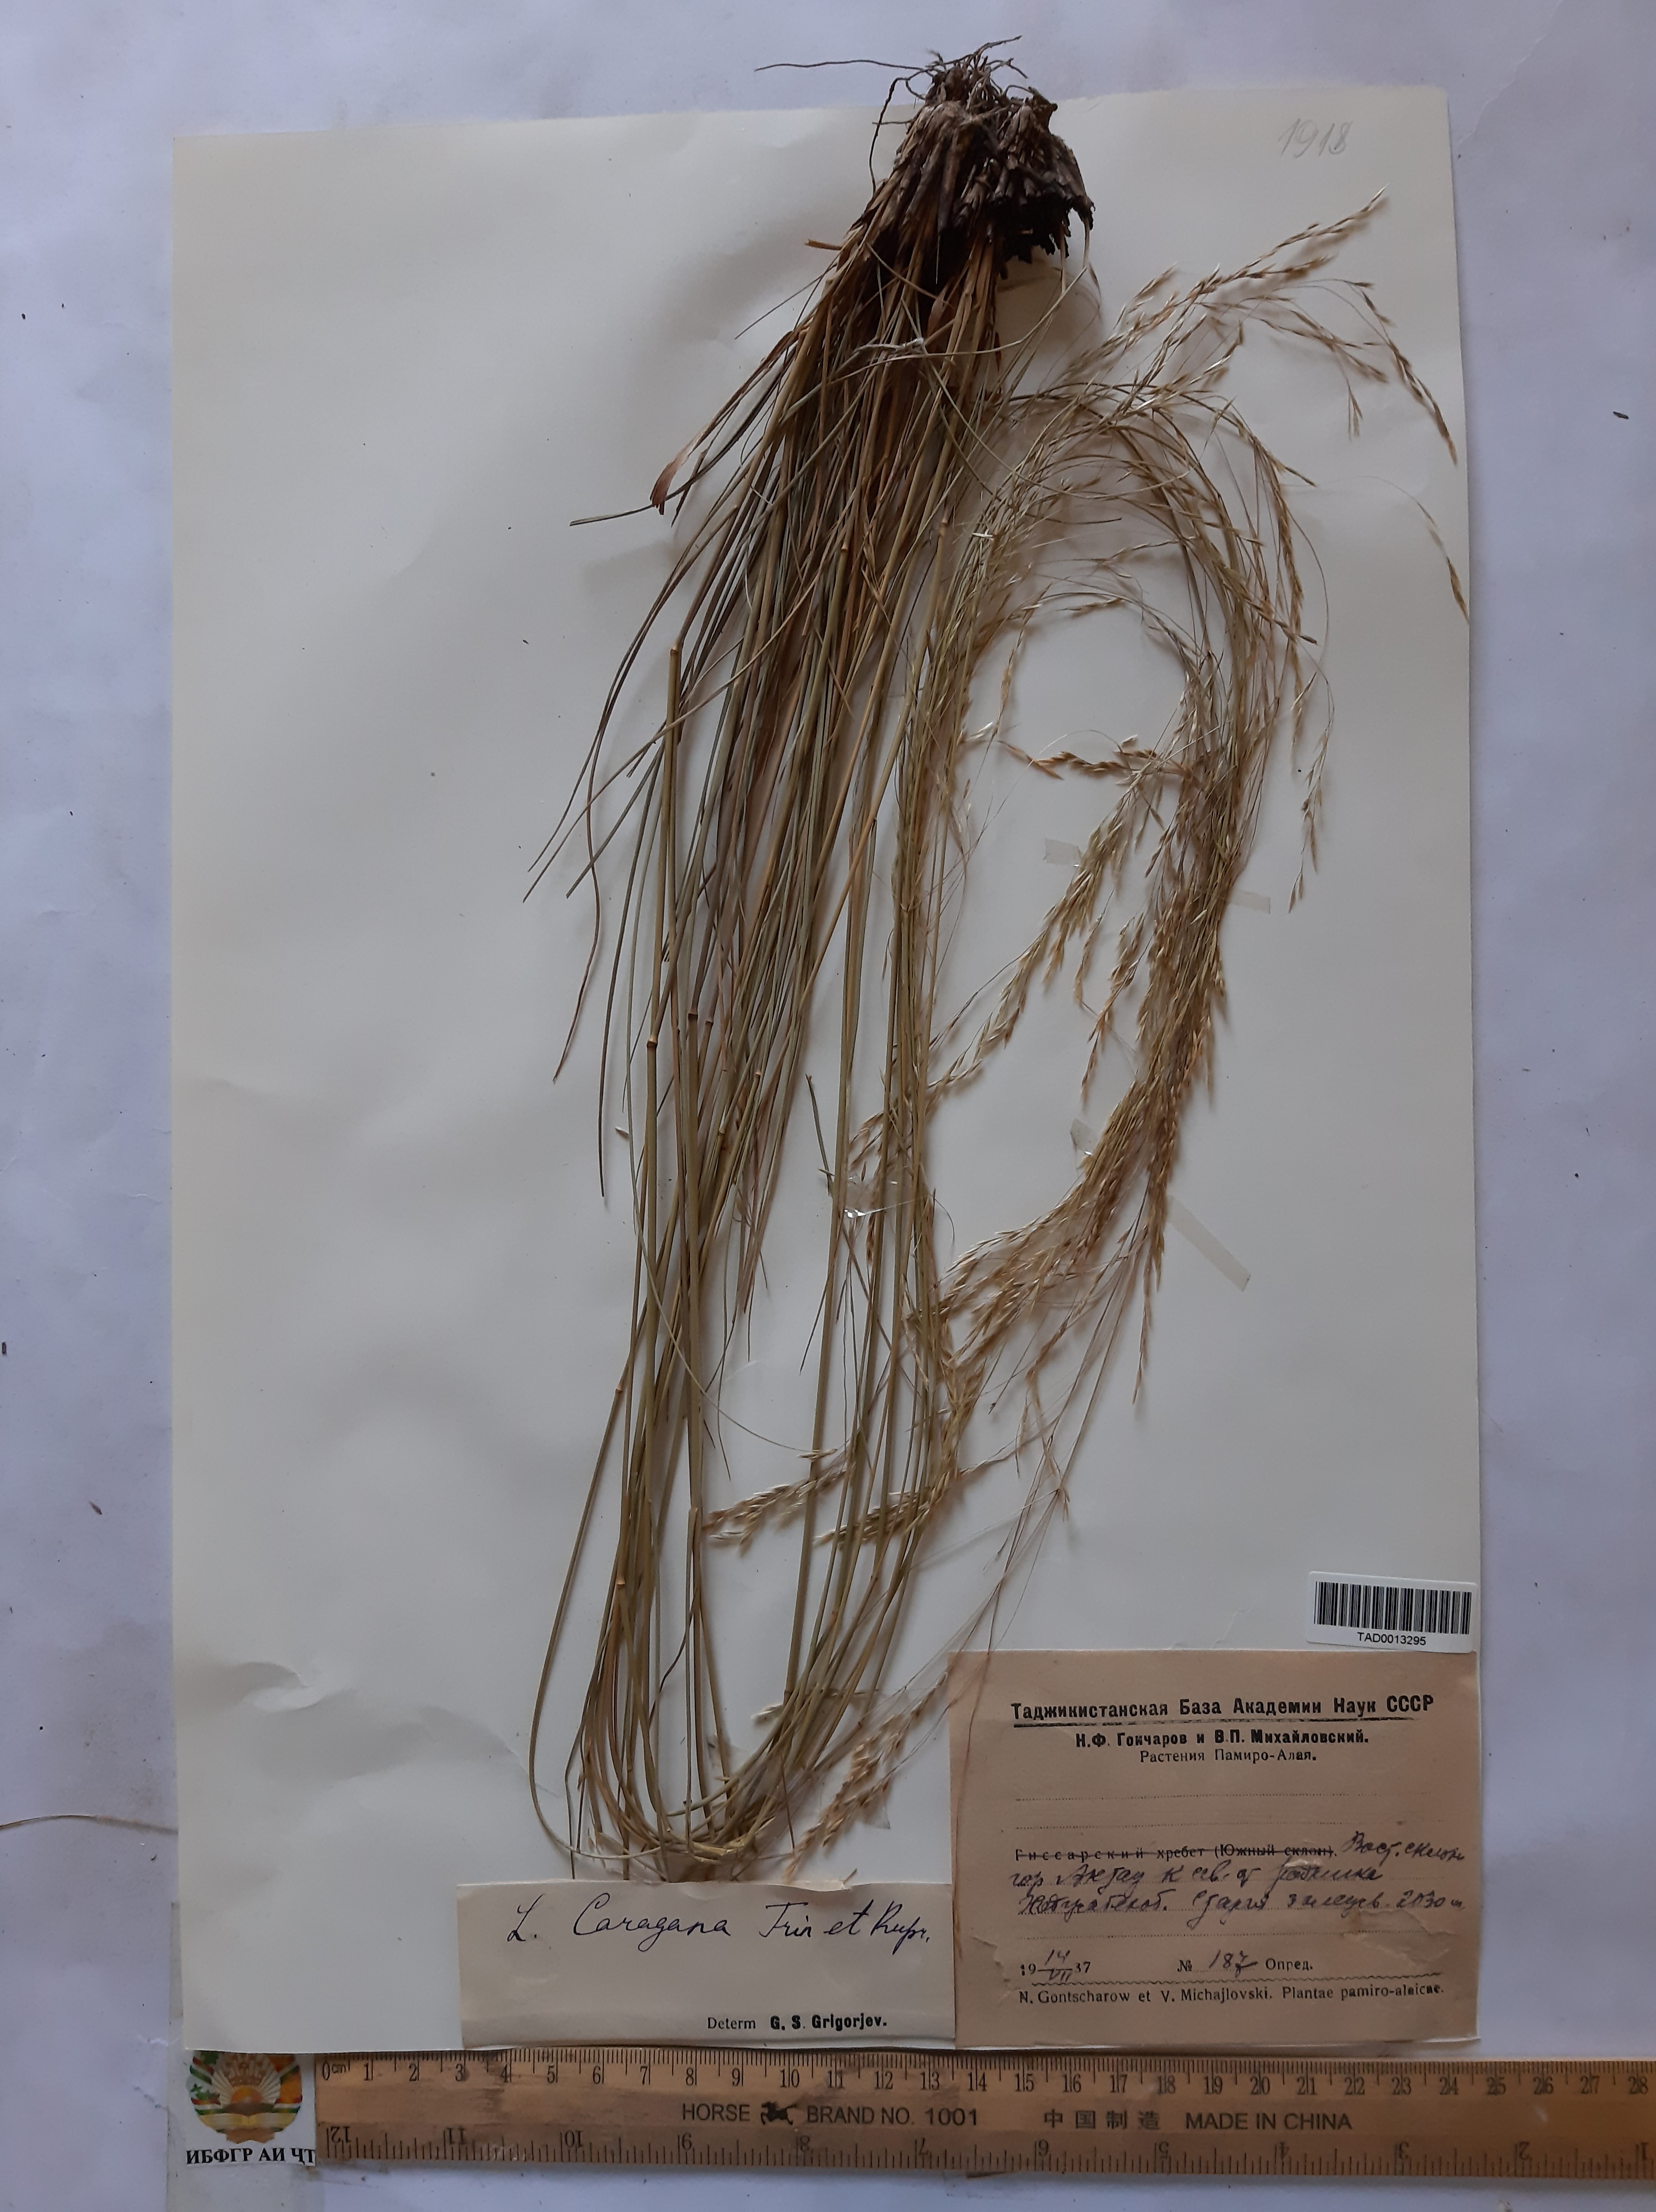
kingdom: Plantae
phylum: Tracheophyta
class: Liliopsida
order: Poales
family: Poaceae
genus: Stipa
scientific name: Stipa conferta
